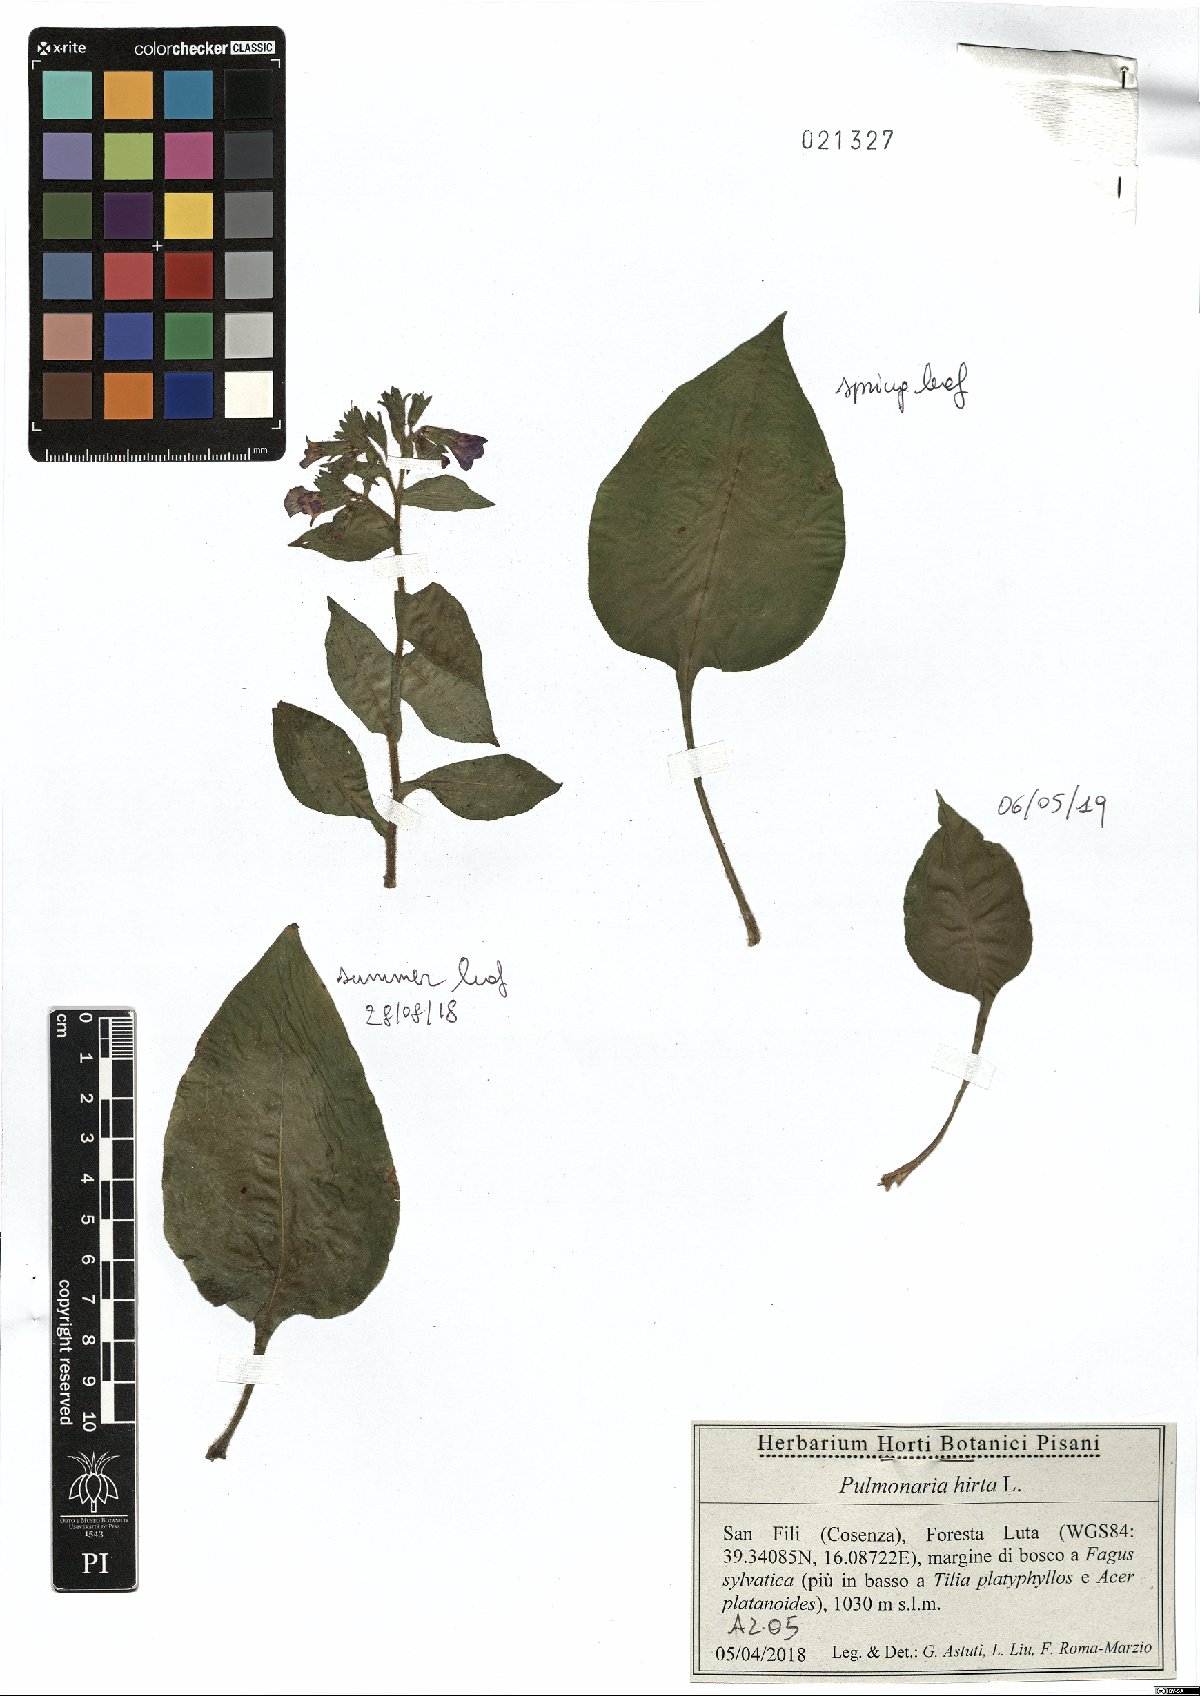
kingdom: Plantae
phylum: Tracheophyta
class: Magnoliopsida
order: Boraginales
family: Boraginaceae
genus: Pulmonaria
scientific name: Pulmonaria hirta
